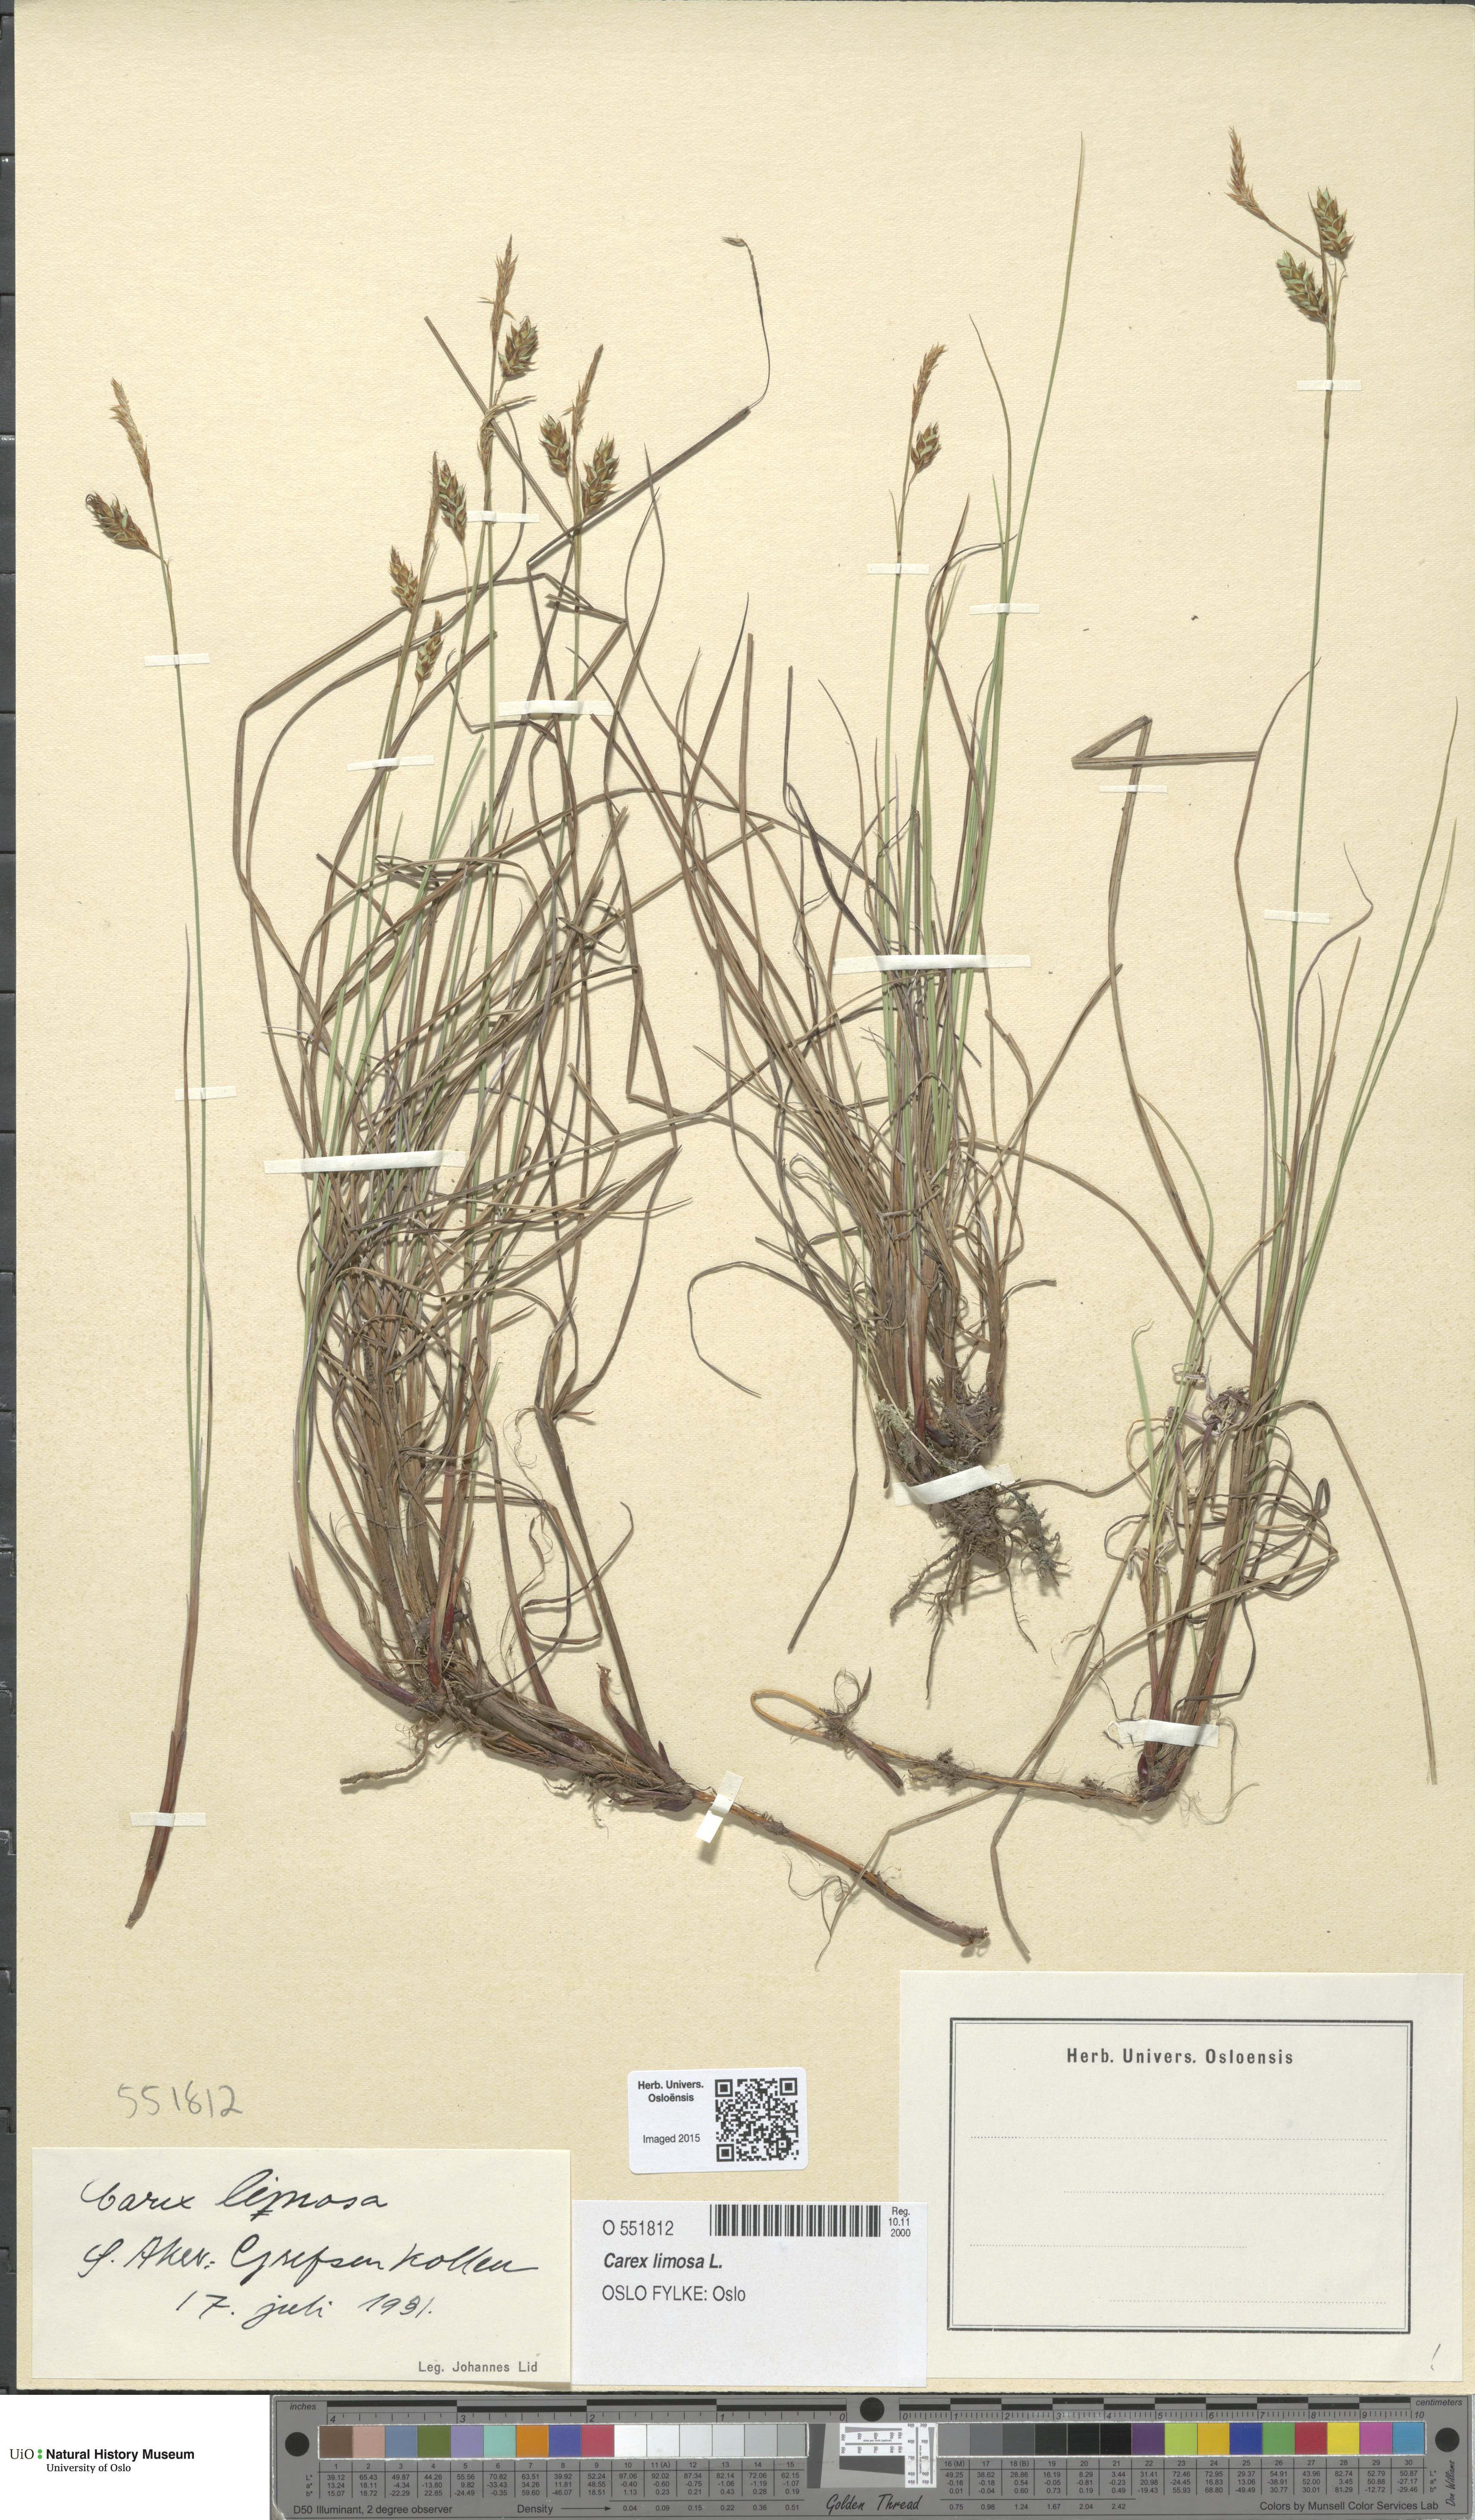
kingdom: Plantae
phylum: Tracheophyta
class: Liliopsida
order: Poales
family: Cyperaceae
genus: Carex
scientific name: Carex limosa
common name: Bog sedge
